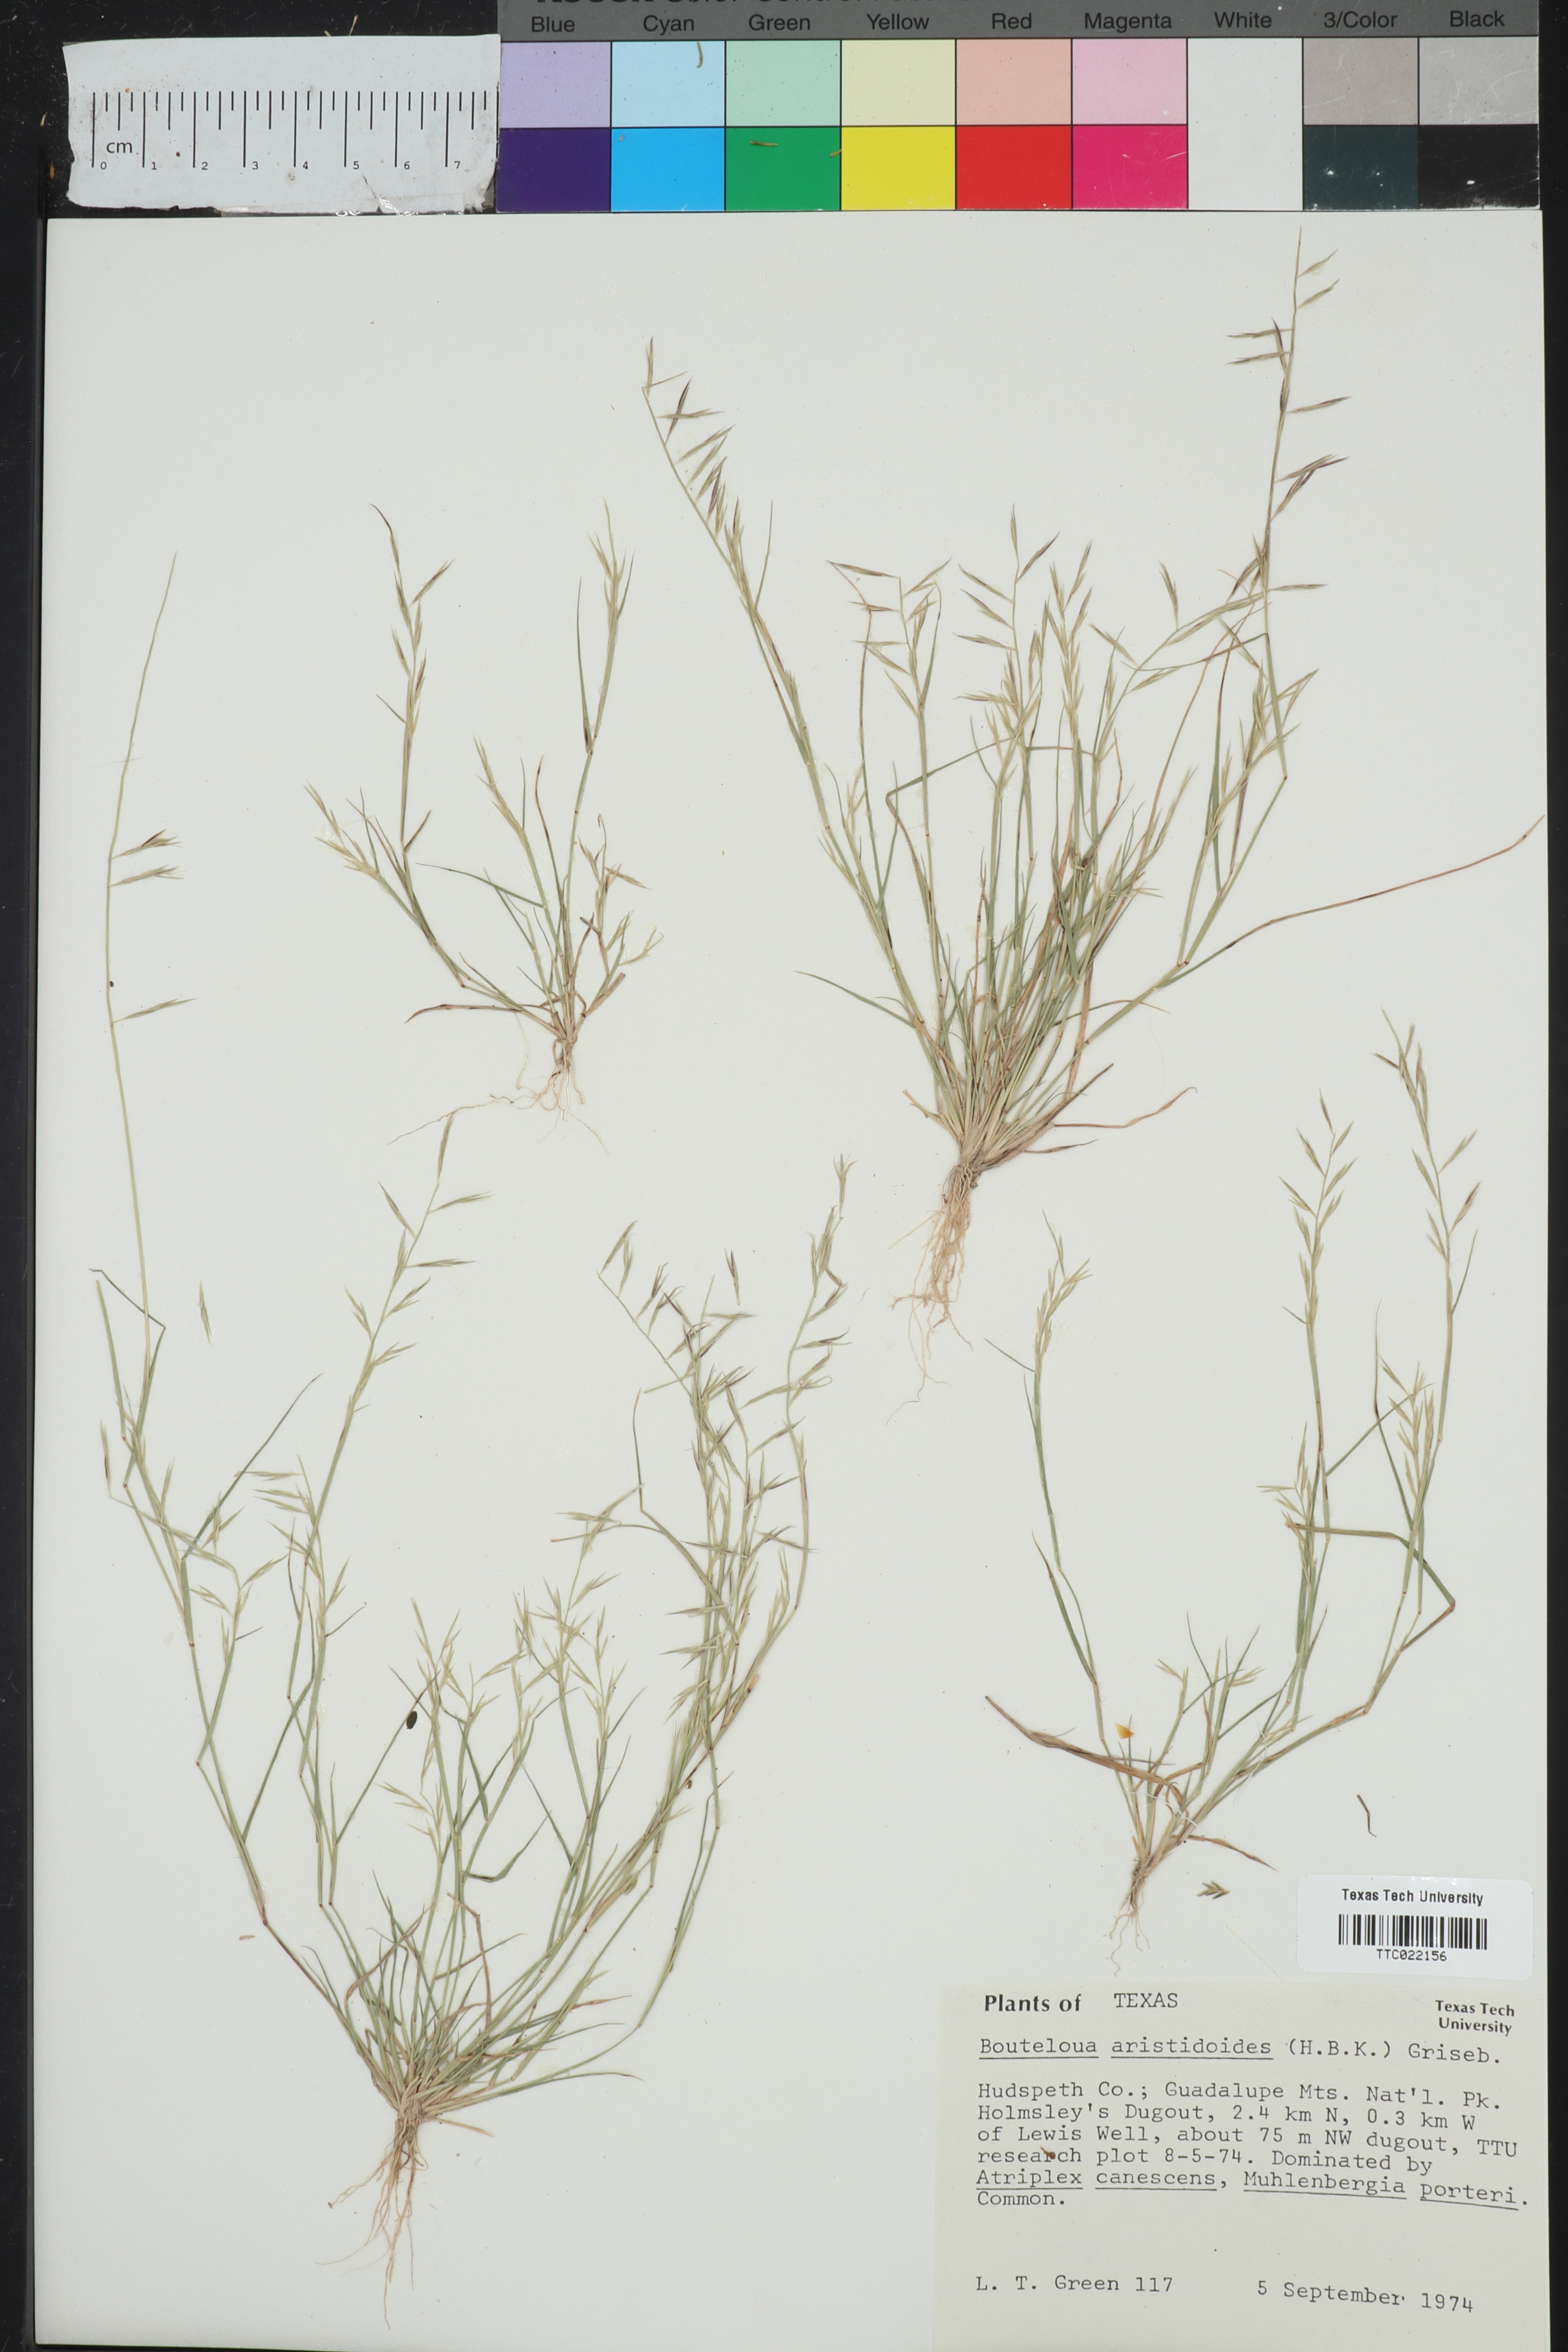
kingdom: Plantae
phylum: Tracheophyta
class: Liliopsida
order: Poales
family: Poaceae
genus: Bouteloua
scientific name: Bouteloua aristidoides
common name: Needle grama
